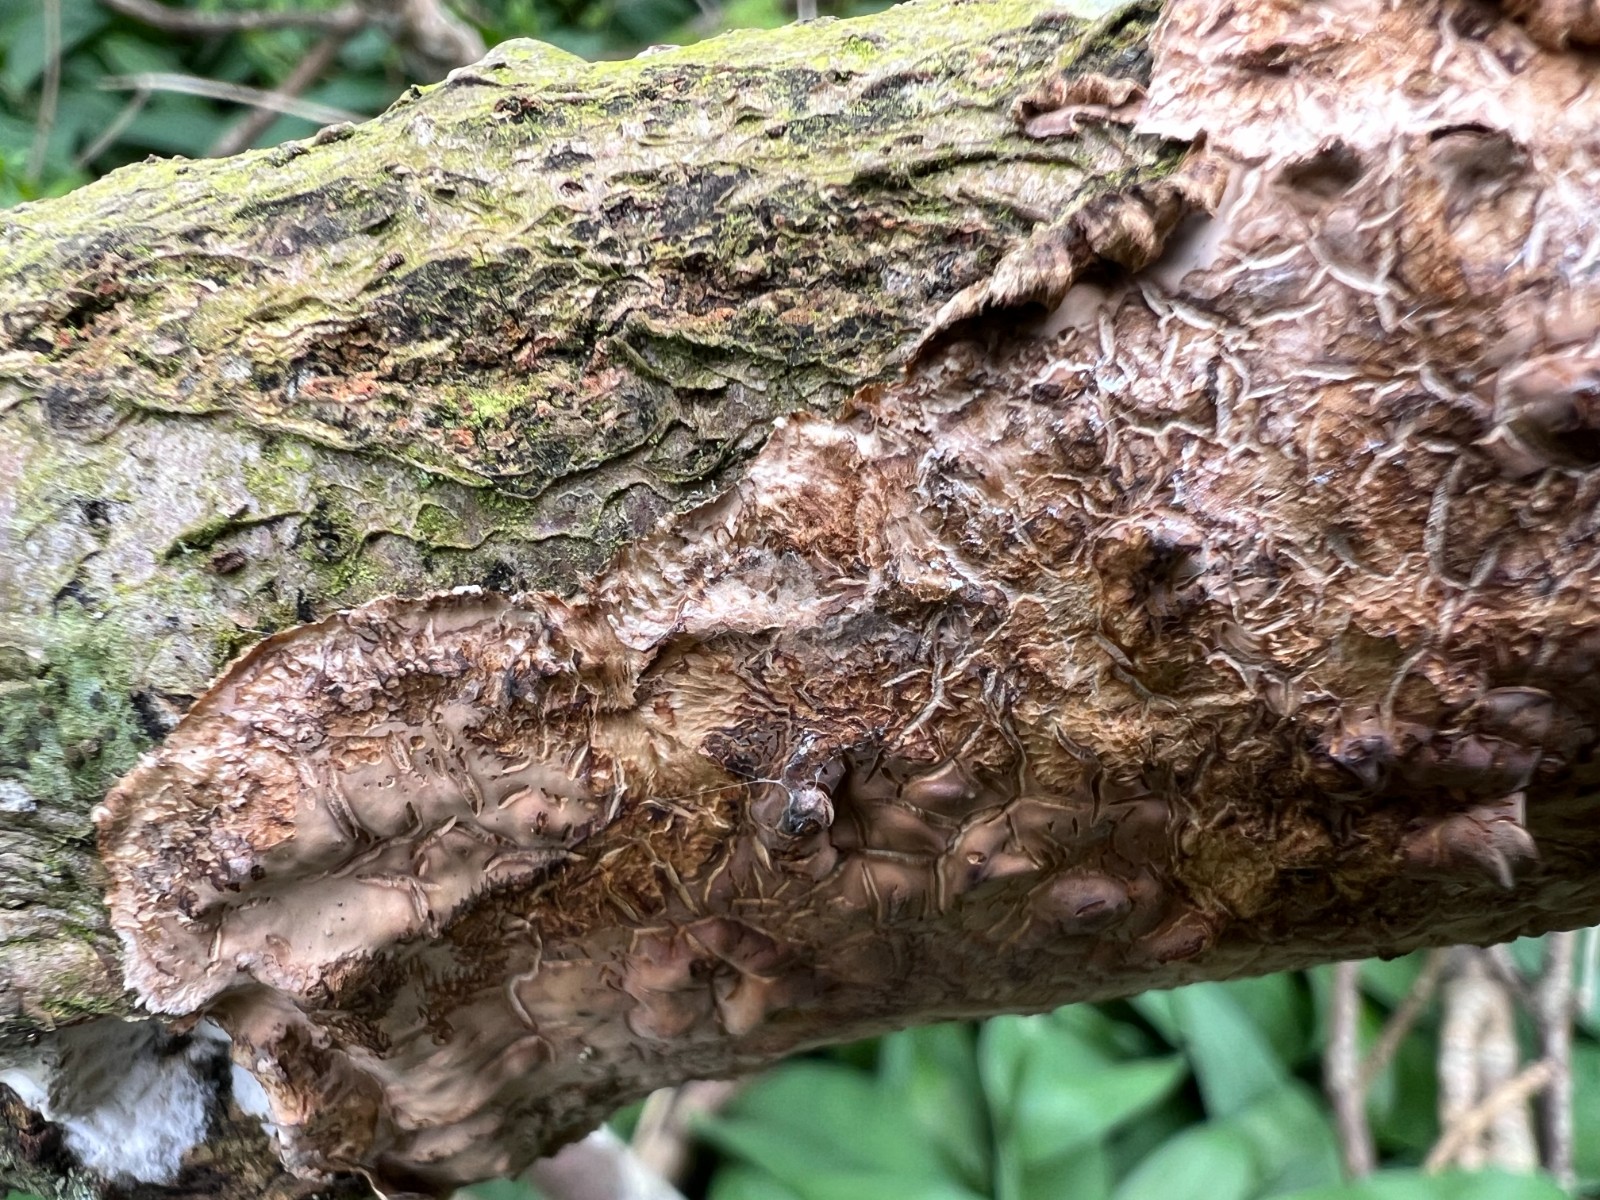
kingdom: Fungi
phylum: Basidiomycota
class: Agaricomycetes
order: Russulales
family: Stereaceae
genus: Stereum
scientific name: Stereum rugosum
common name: rynket lædersvamp
